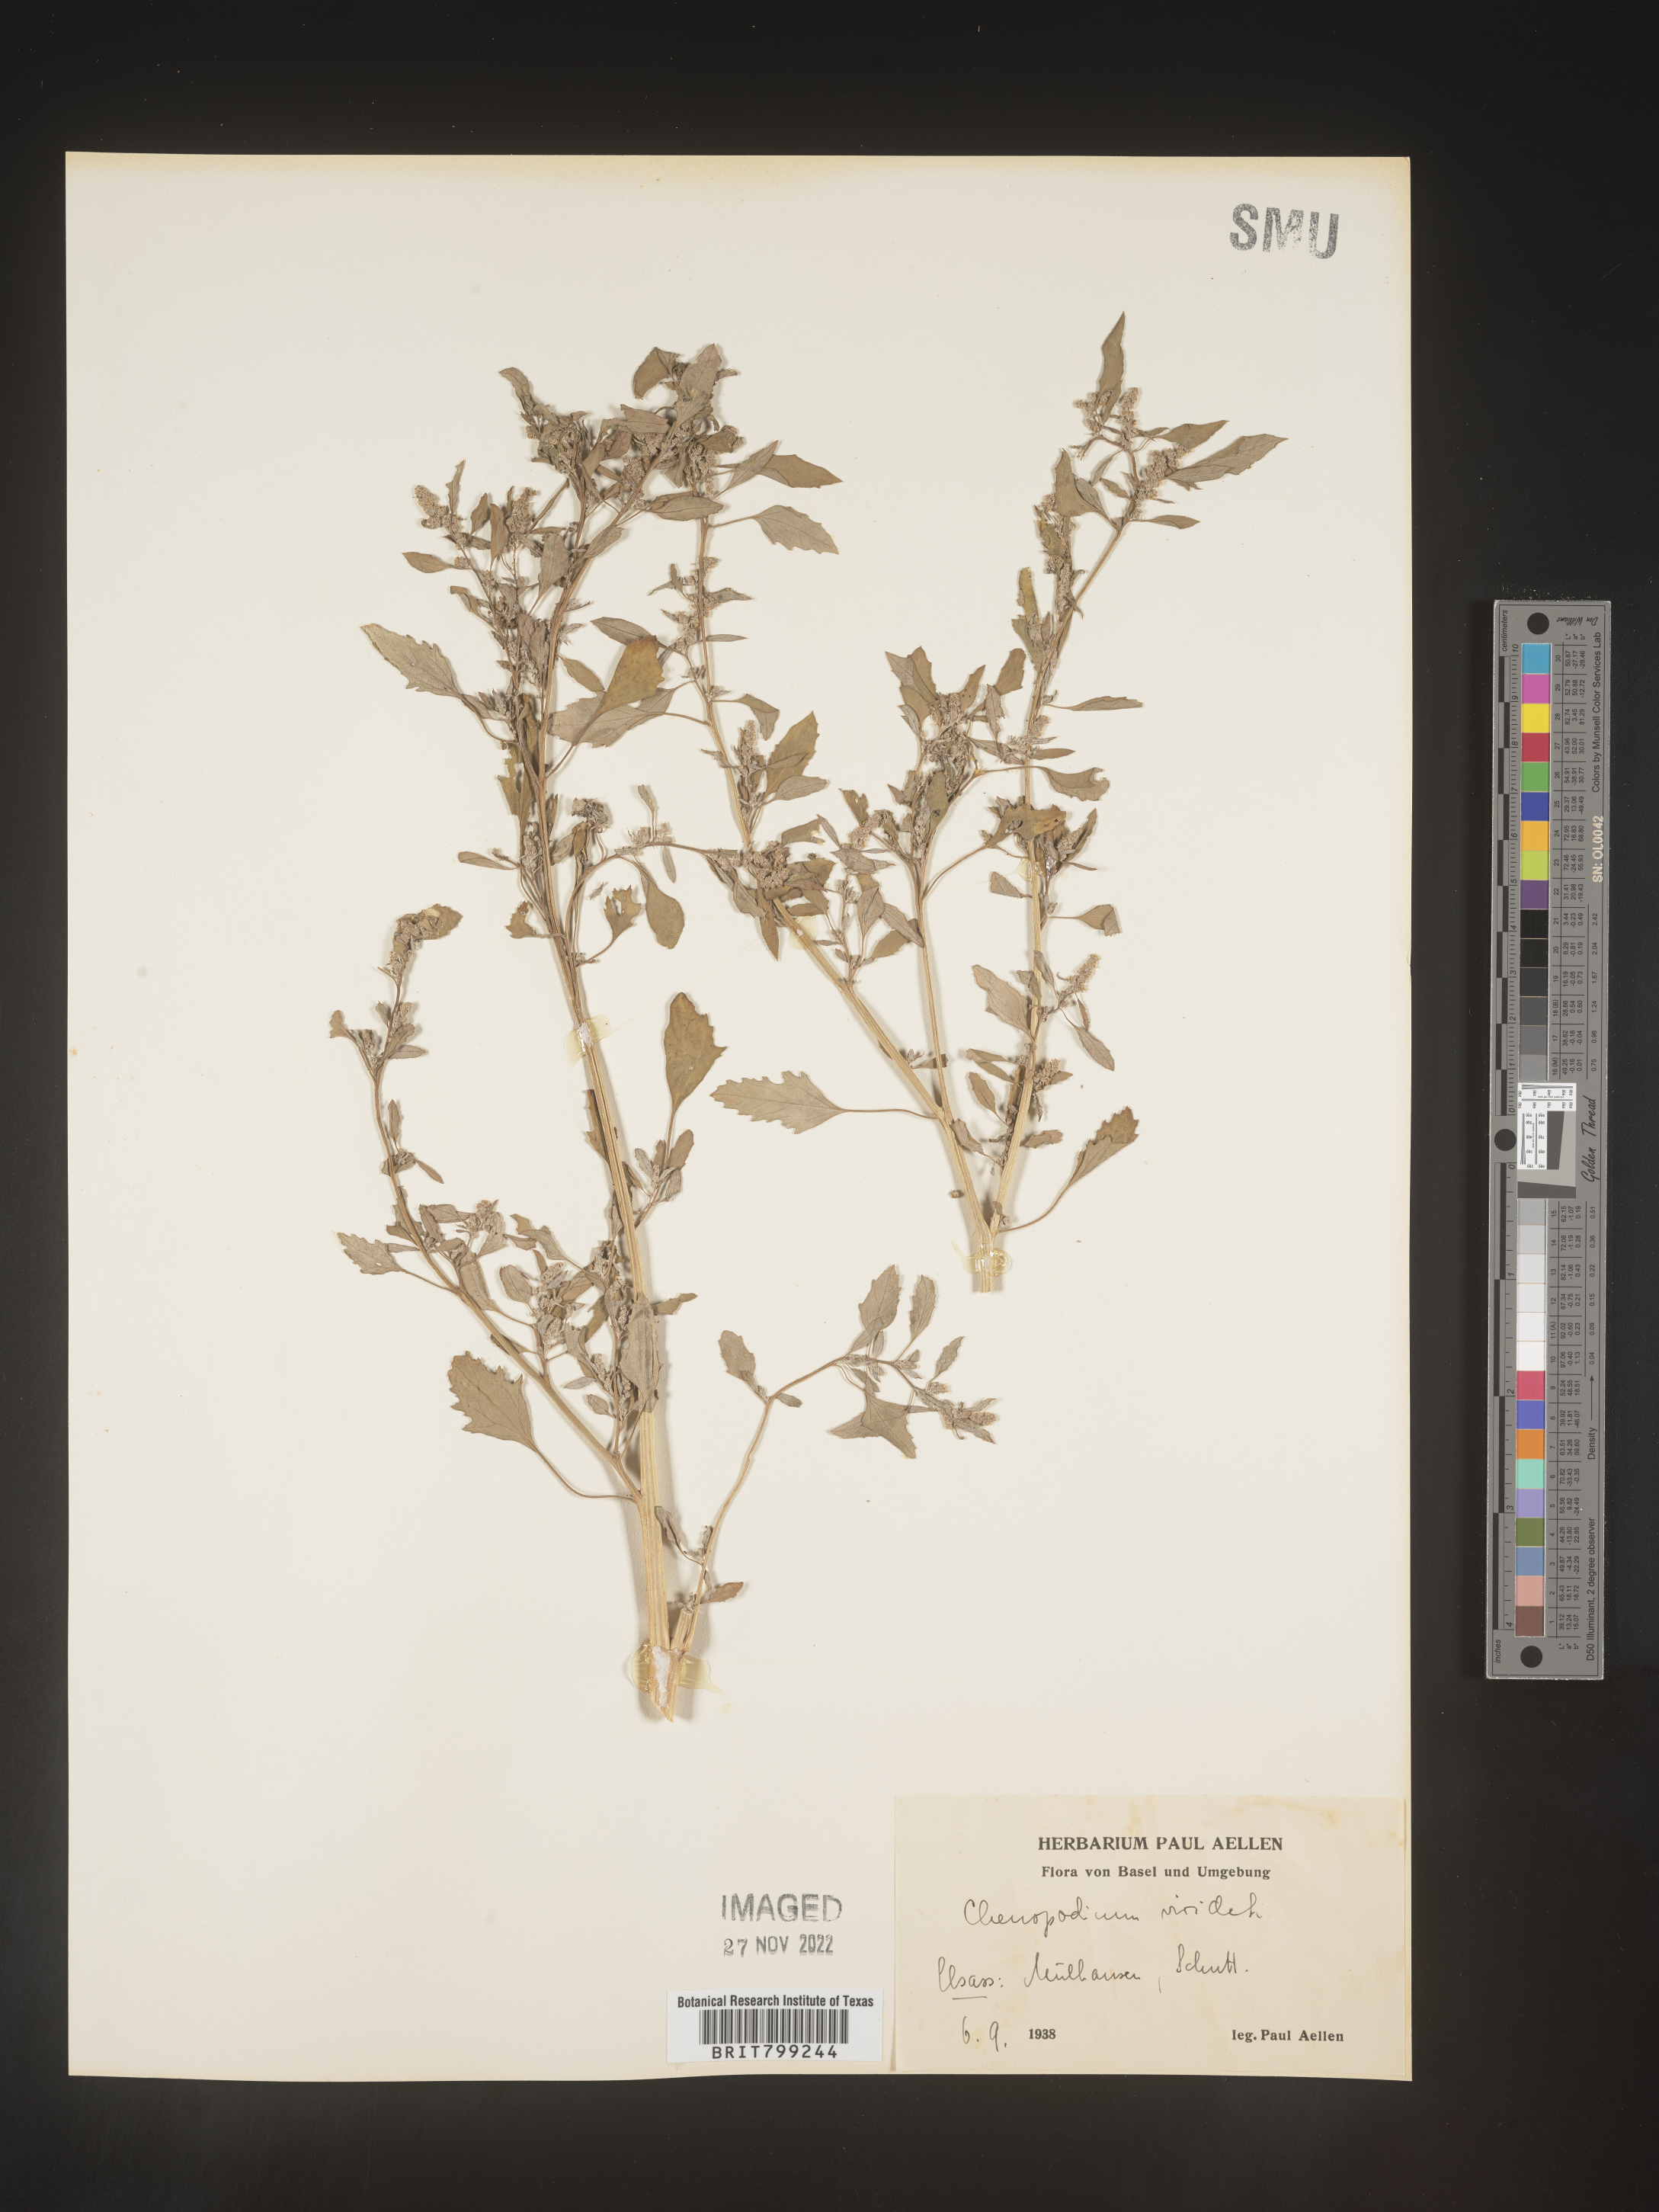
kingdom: Plantae
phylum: Tracheophyta
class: Magnoliopsida
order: Caryophyllales
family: Amaranthaceae
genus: Chenopodium
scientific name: Chenopodium
